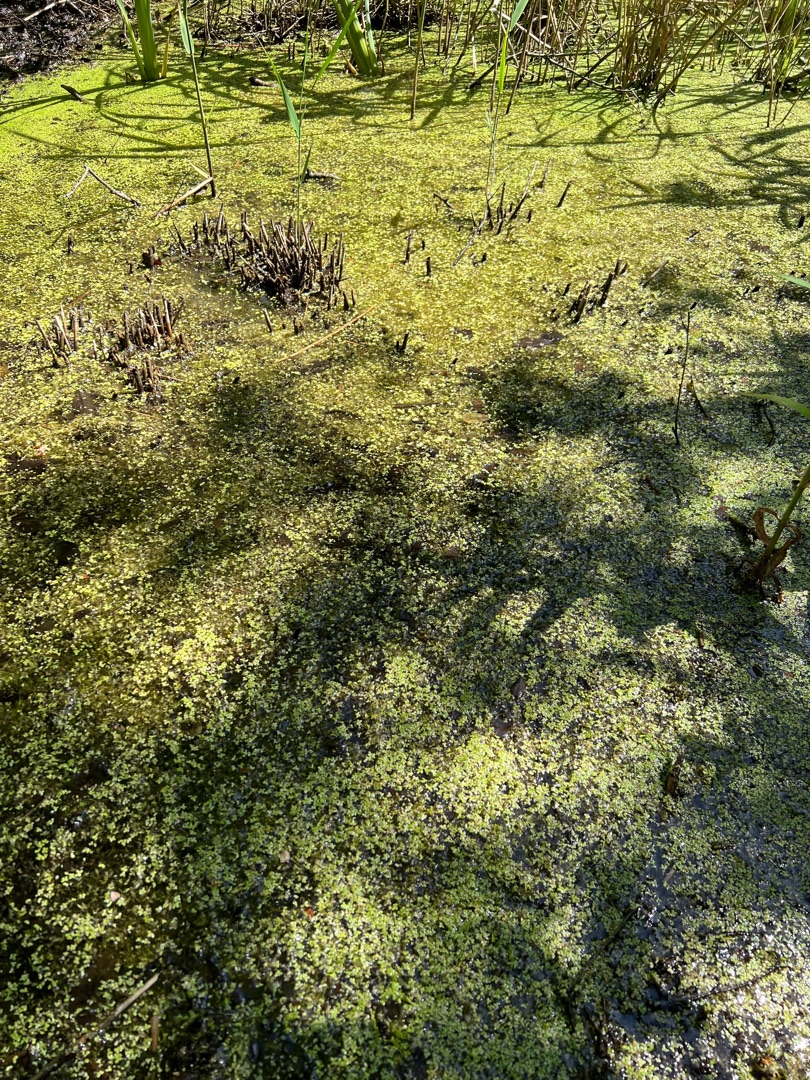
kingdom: Plantae
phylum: Tracheophyta
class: Liliopsida
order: Alismatales
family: Araceae
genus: Lemna
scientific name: Lemna minor
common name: Liden andemad
